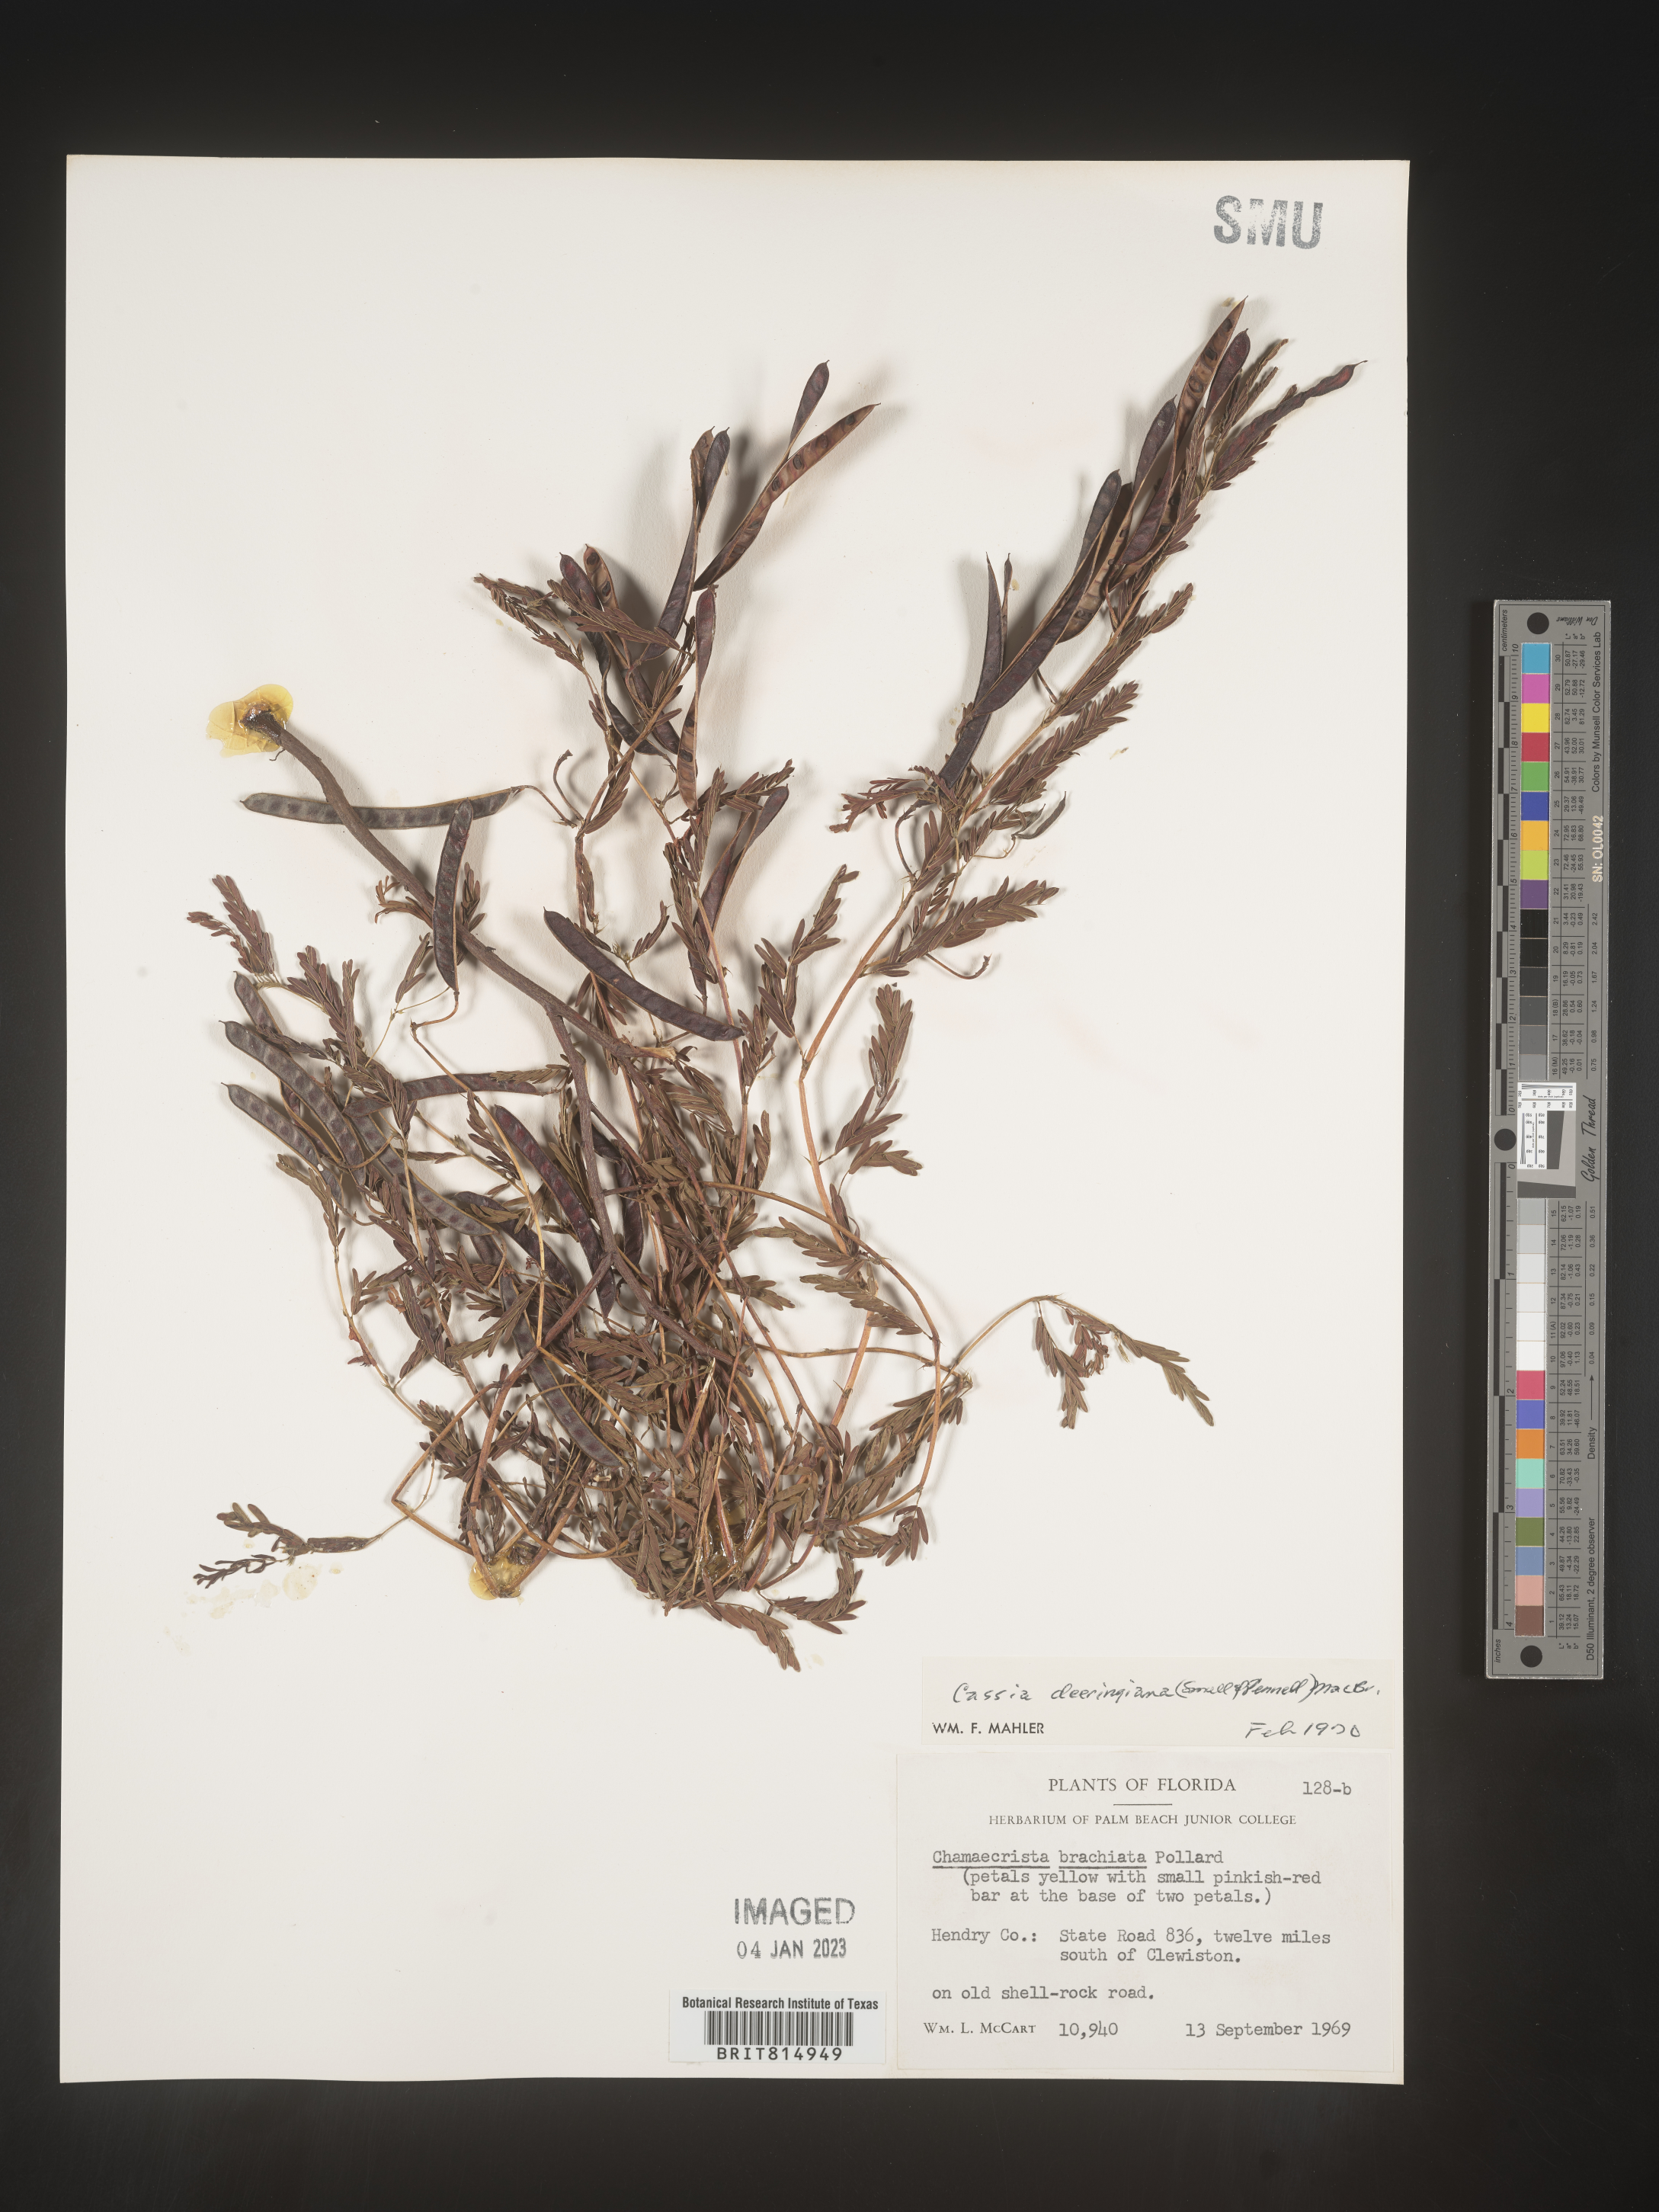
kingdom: Plantae
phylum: Tracheophyta
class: Magnoliopsida
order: Fabales
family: Fabaceae
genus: Cassia
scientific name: Cassia
